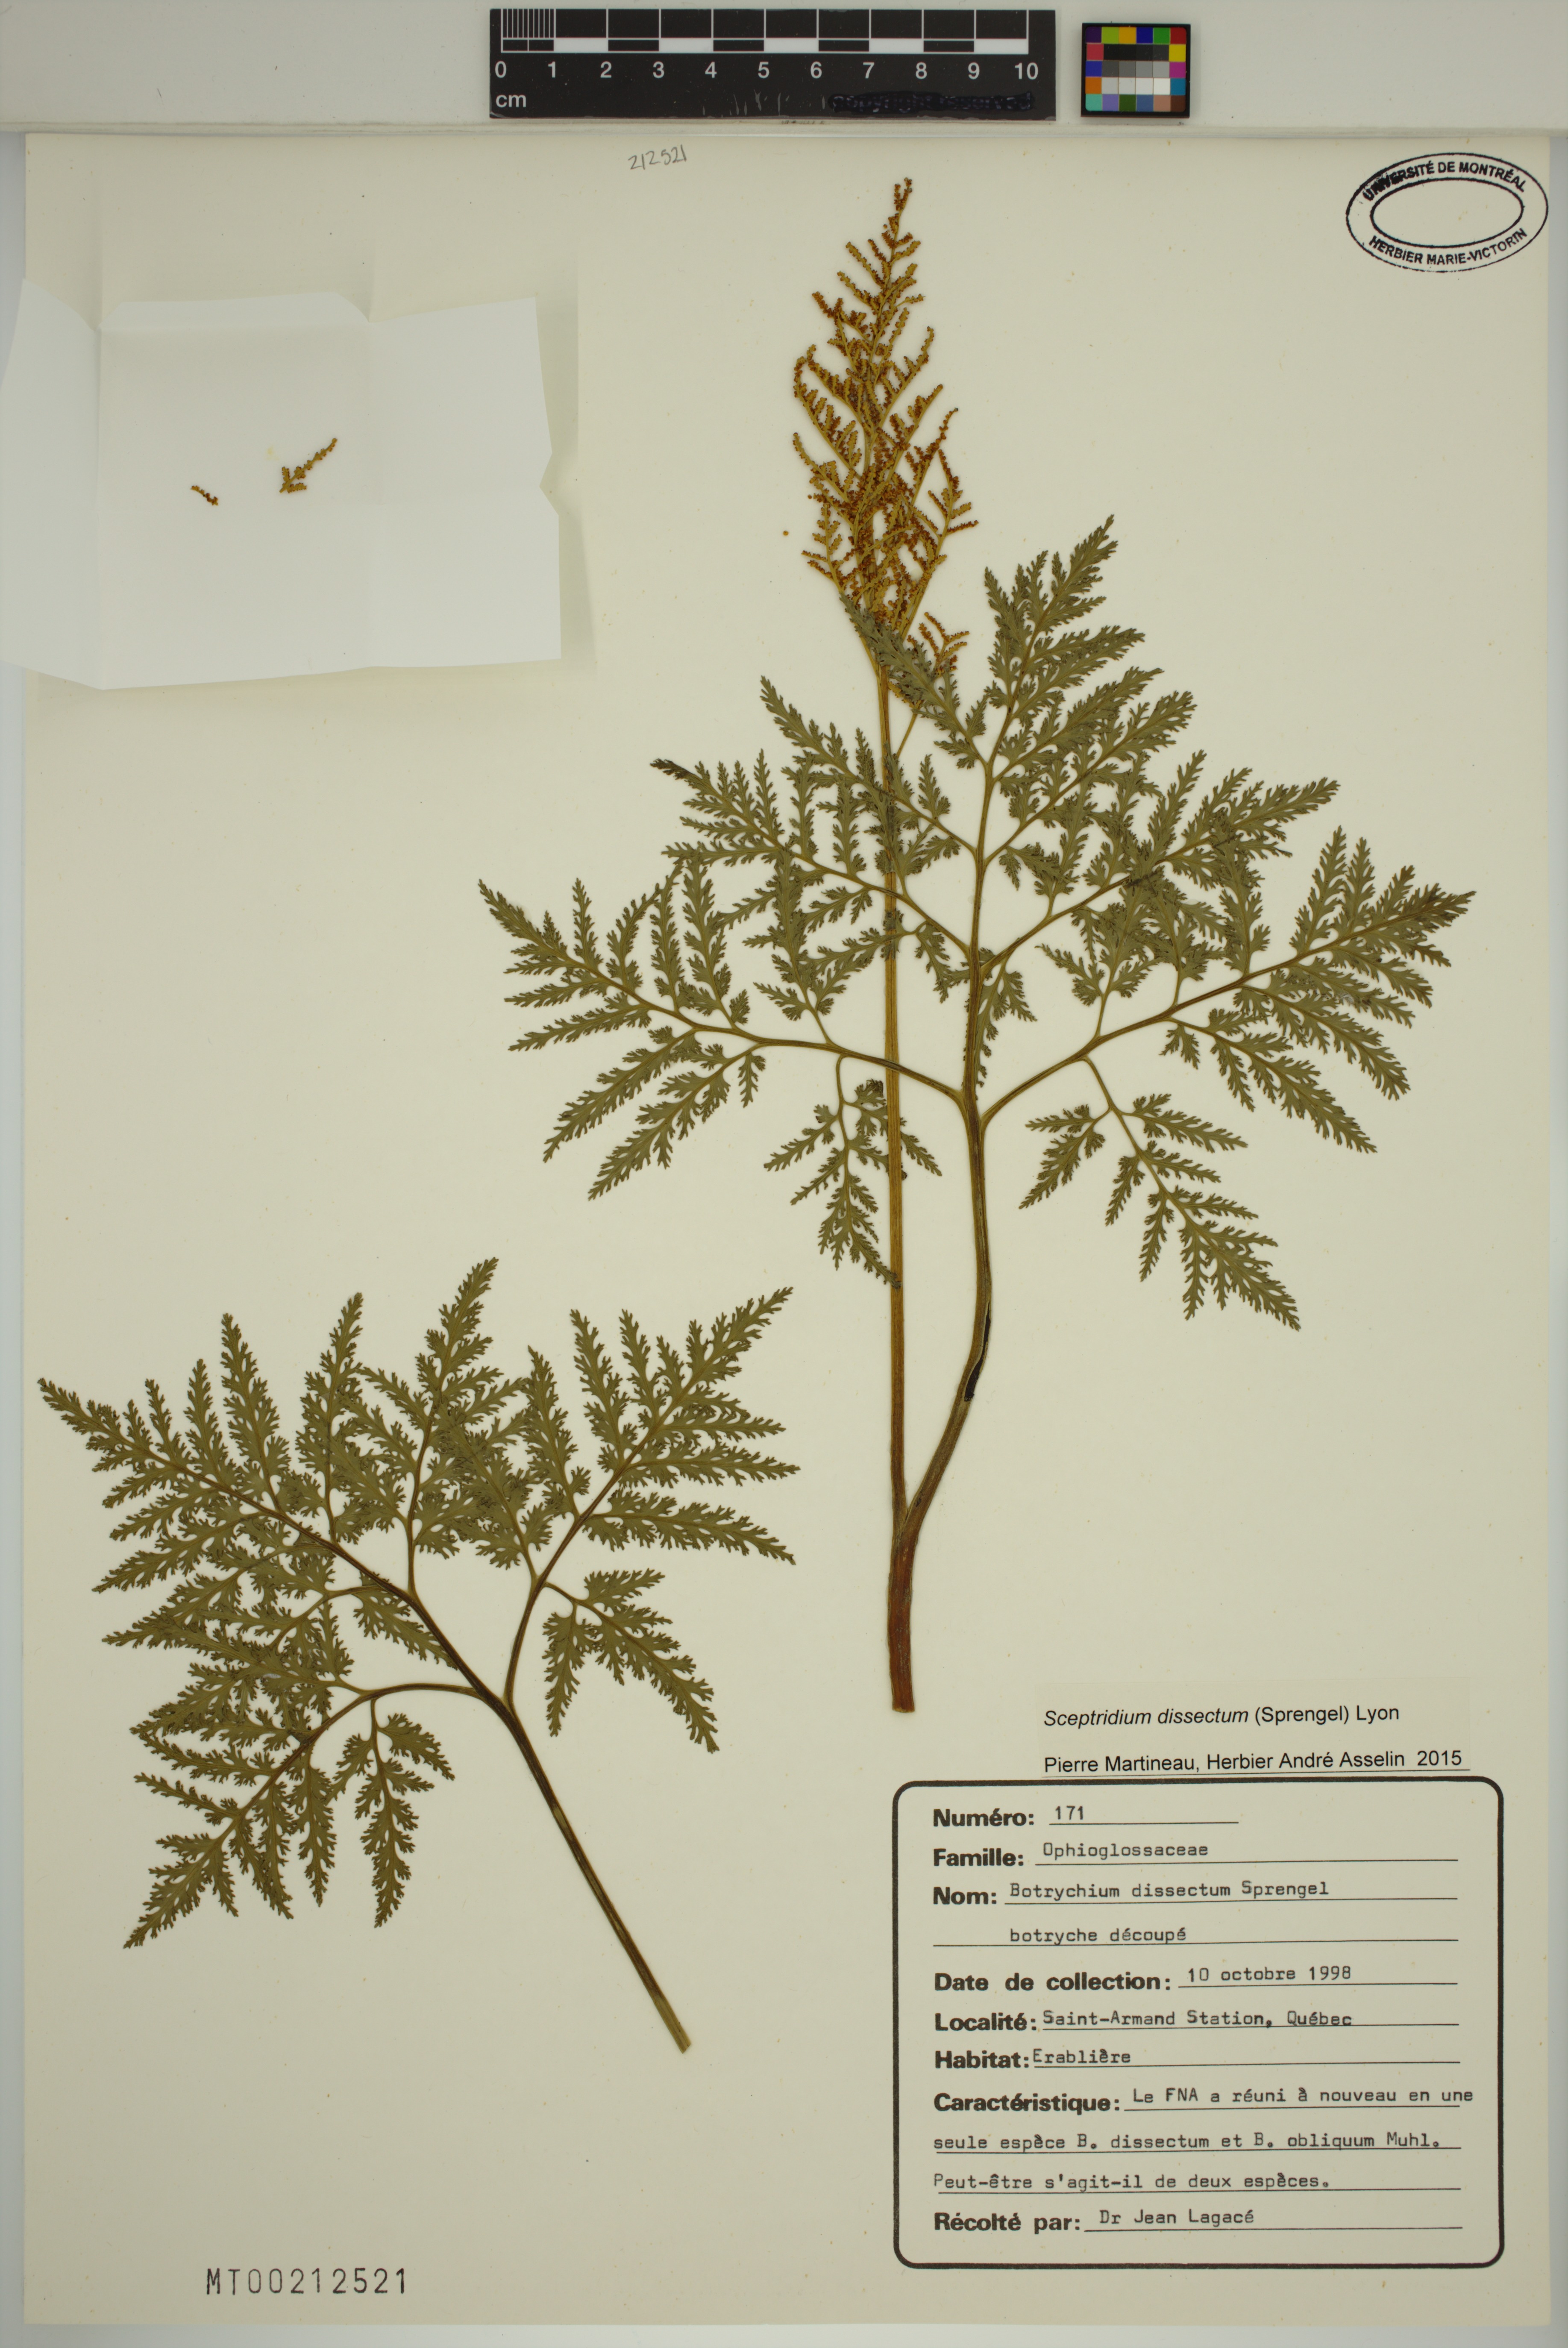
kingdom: Plantae
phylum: Tracheophyta
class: Polypodiopsida
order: Ophioglossales
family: Ophioglossaceae
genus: Sceptridium
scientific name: Sceptridium dissectum
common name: Cut-leaved grapefern
